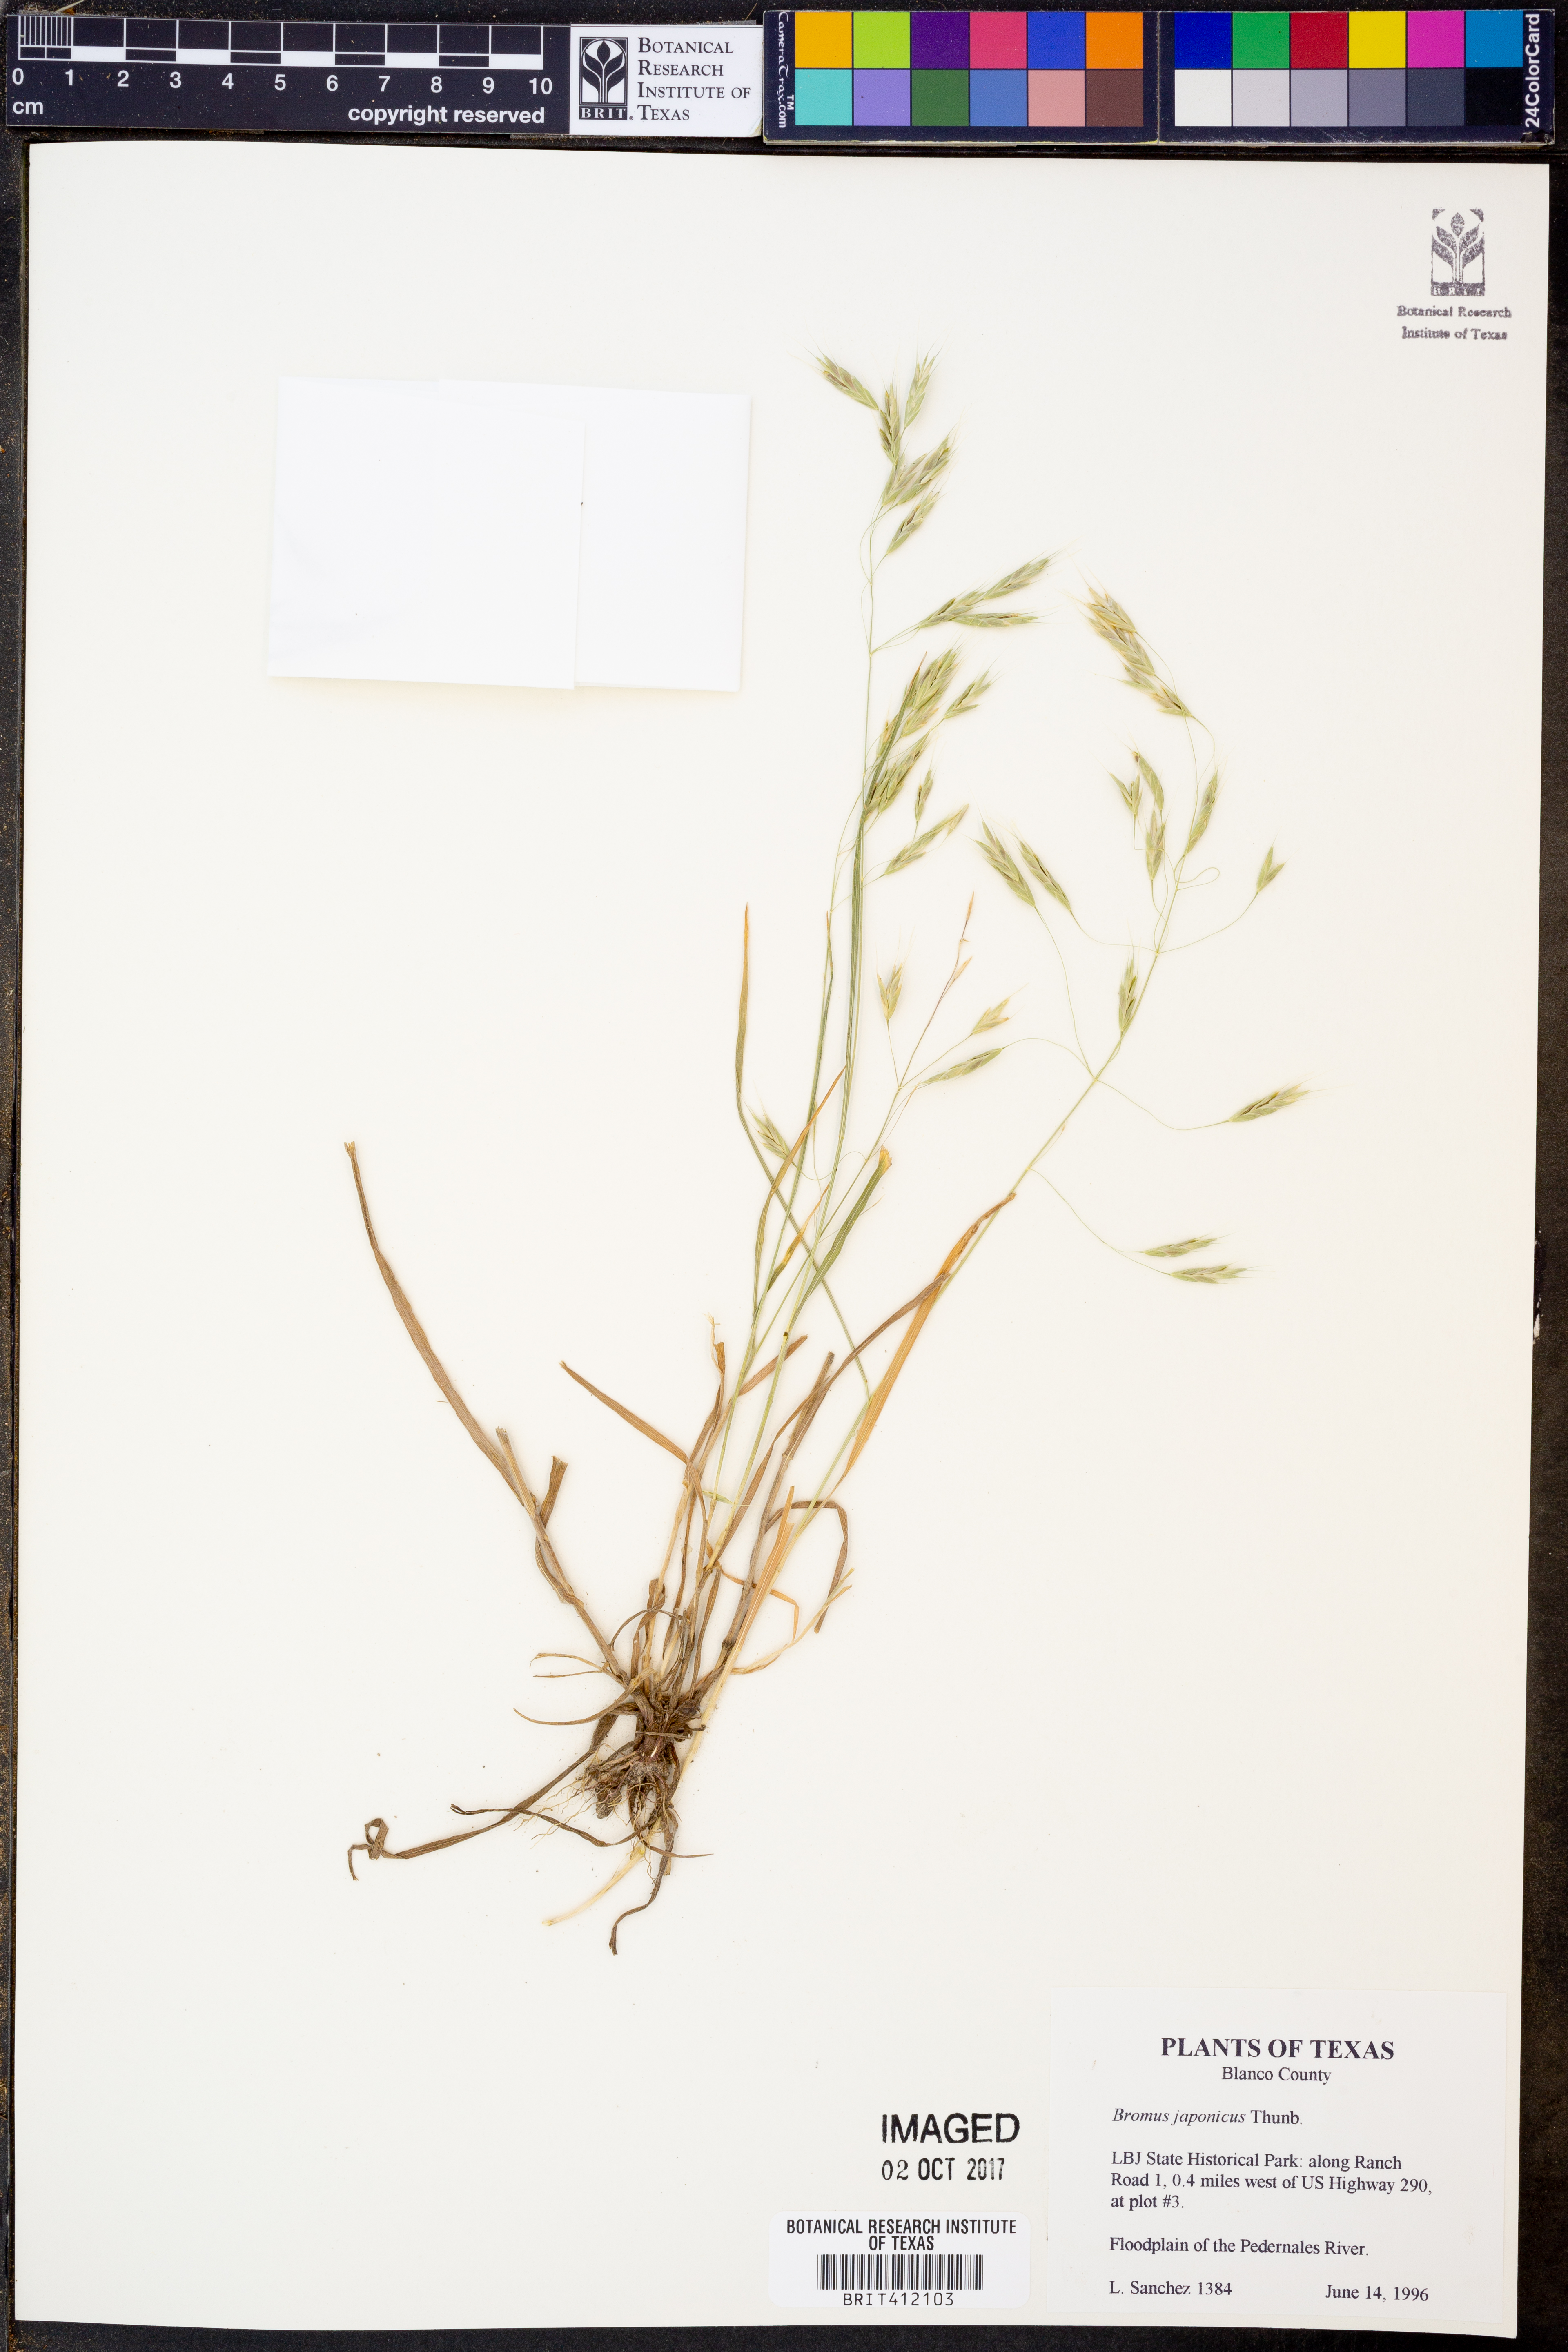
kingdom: Plantae
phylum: Tracheophyta
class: Liliopsida
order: Poales
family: Poaceae
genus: Bromus
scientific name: Bromus japonicus
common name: Japanese brome
